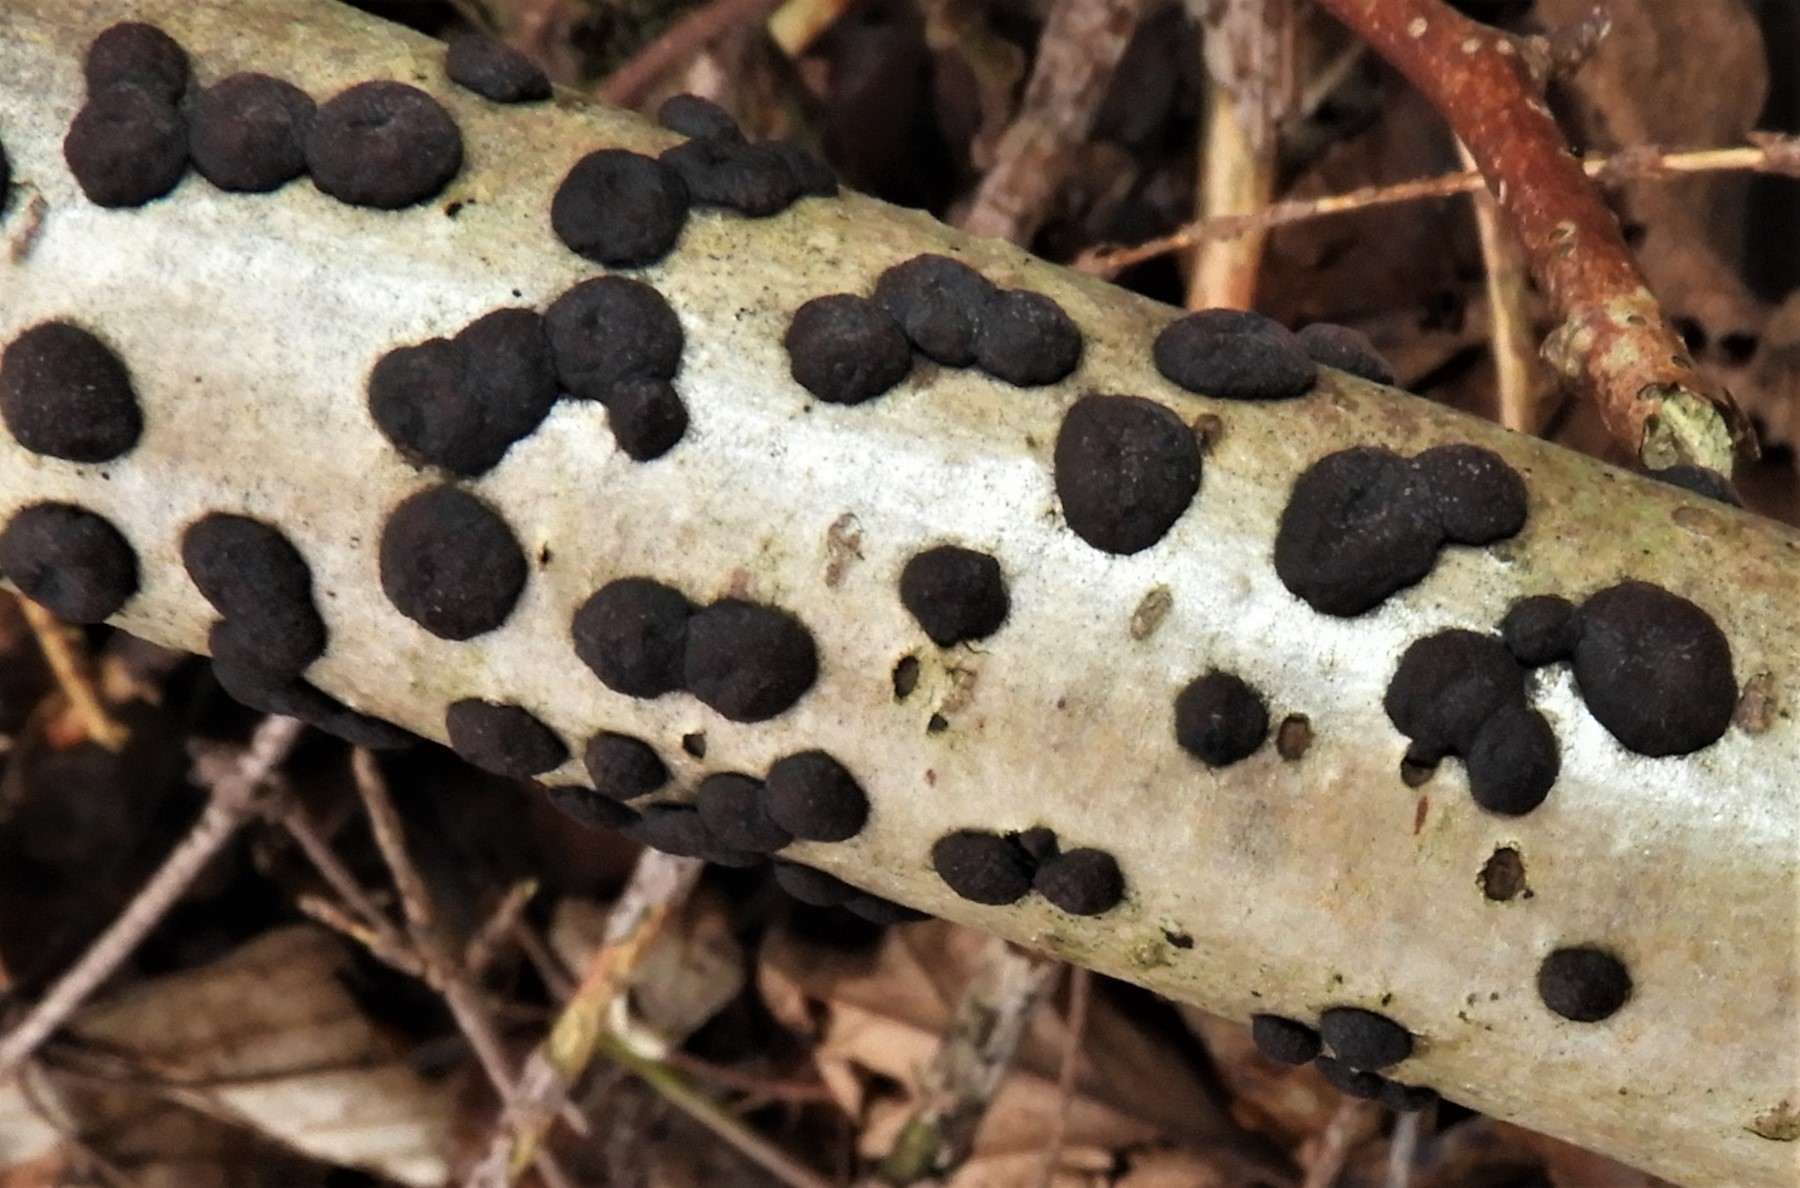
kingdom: Fungi
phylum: Ascomycota
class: Sordariomycetes
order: Xylariales
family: Hypoxylaceae
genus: Hypoxylon
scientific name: Hypoxylon fuscum
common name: kegleformet kulbær
